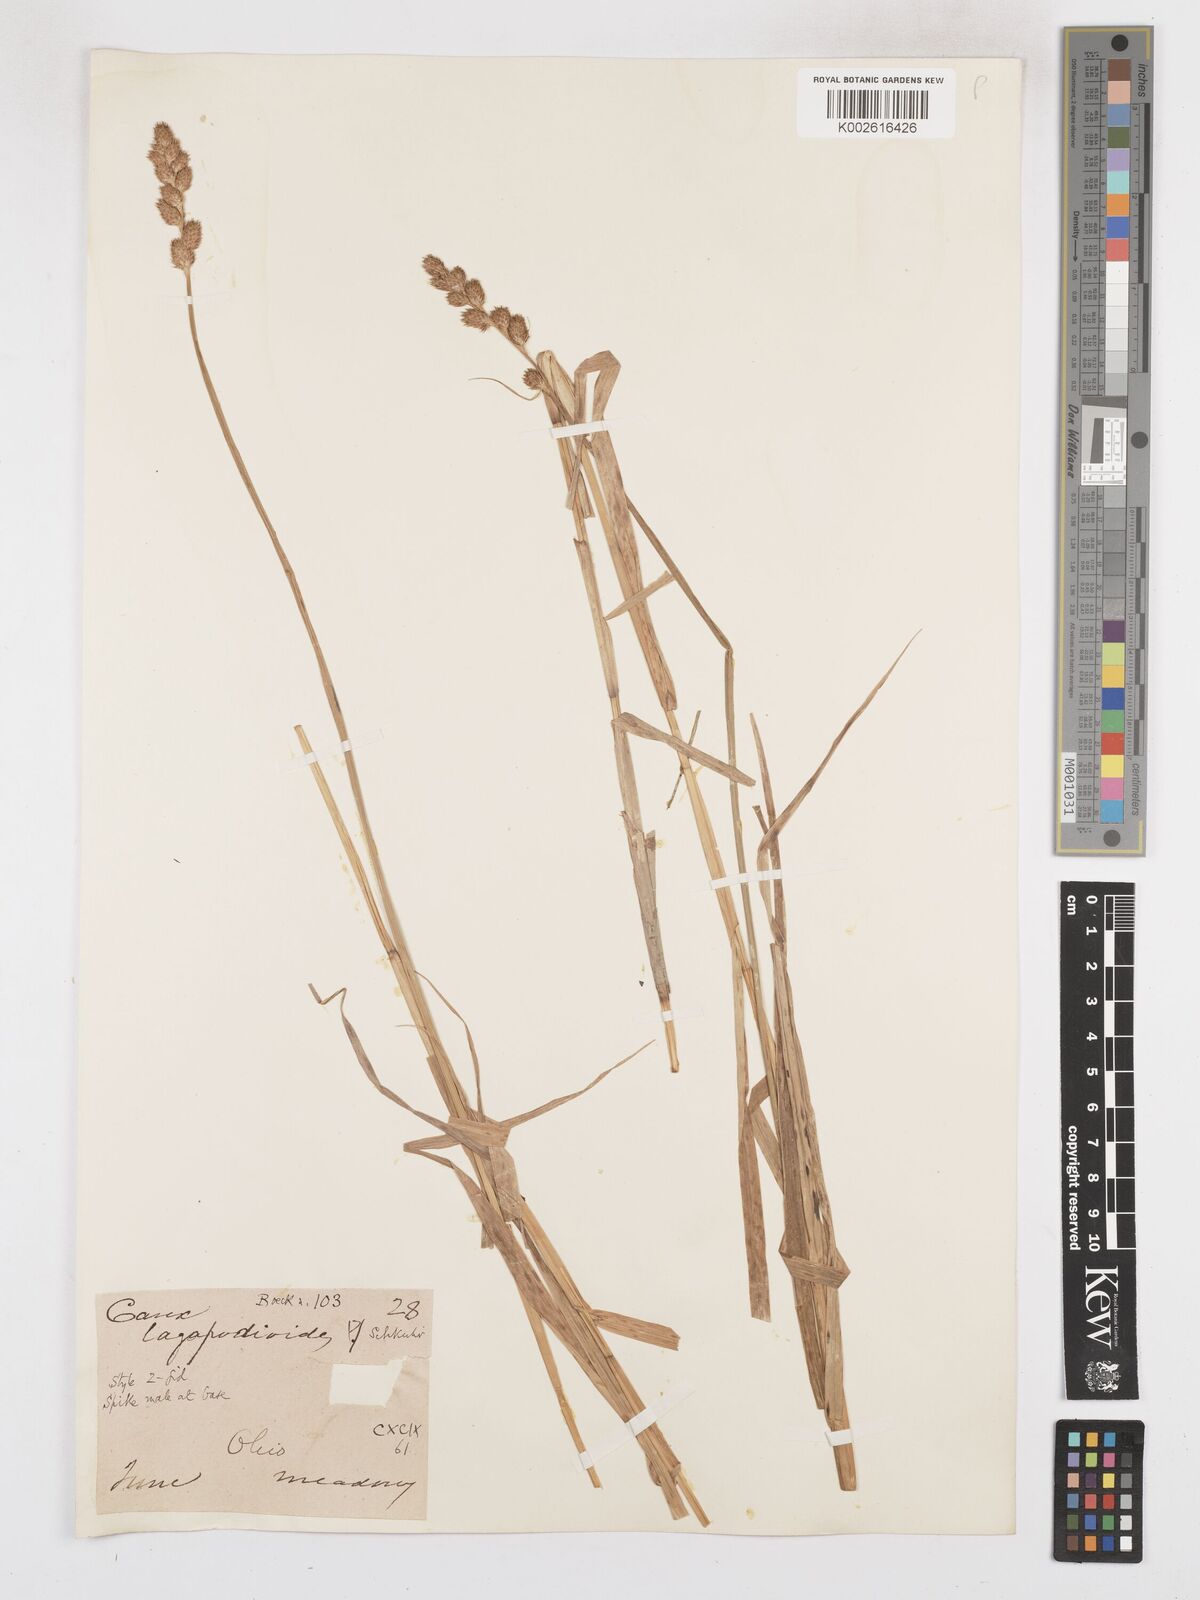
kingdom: Plantae
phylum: Tracheophyta
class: Liliopsida
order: Poales
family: Cyperaceae
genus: Carex
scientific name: Carex tribuloides
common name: Blunt broom sedge
